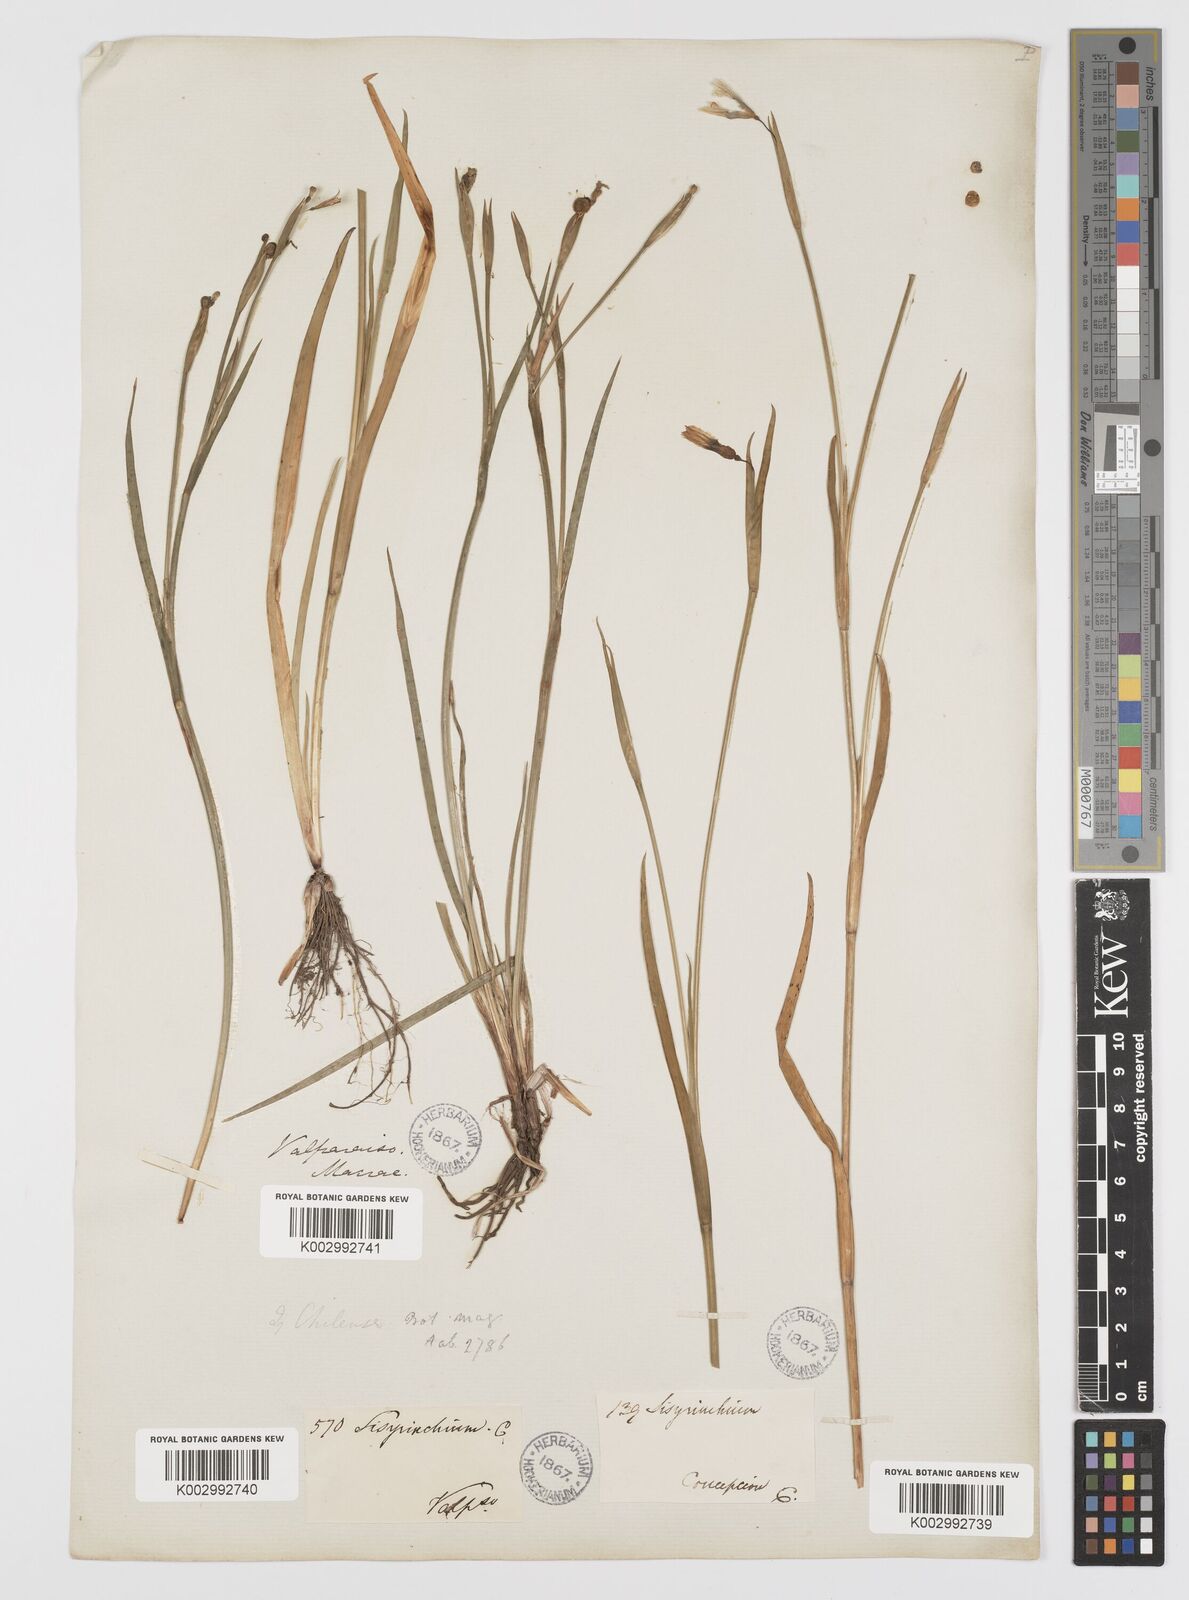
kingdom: Plantae
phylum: Tracheophyta
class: Liliopsida
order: Asparagales
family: Iridaceae
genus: Sisyrinchium
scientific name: Sisyrinchium chilense
